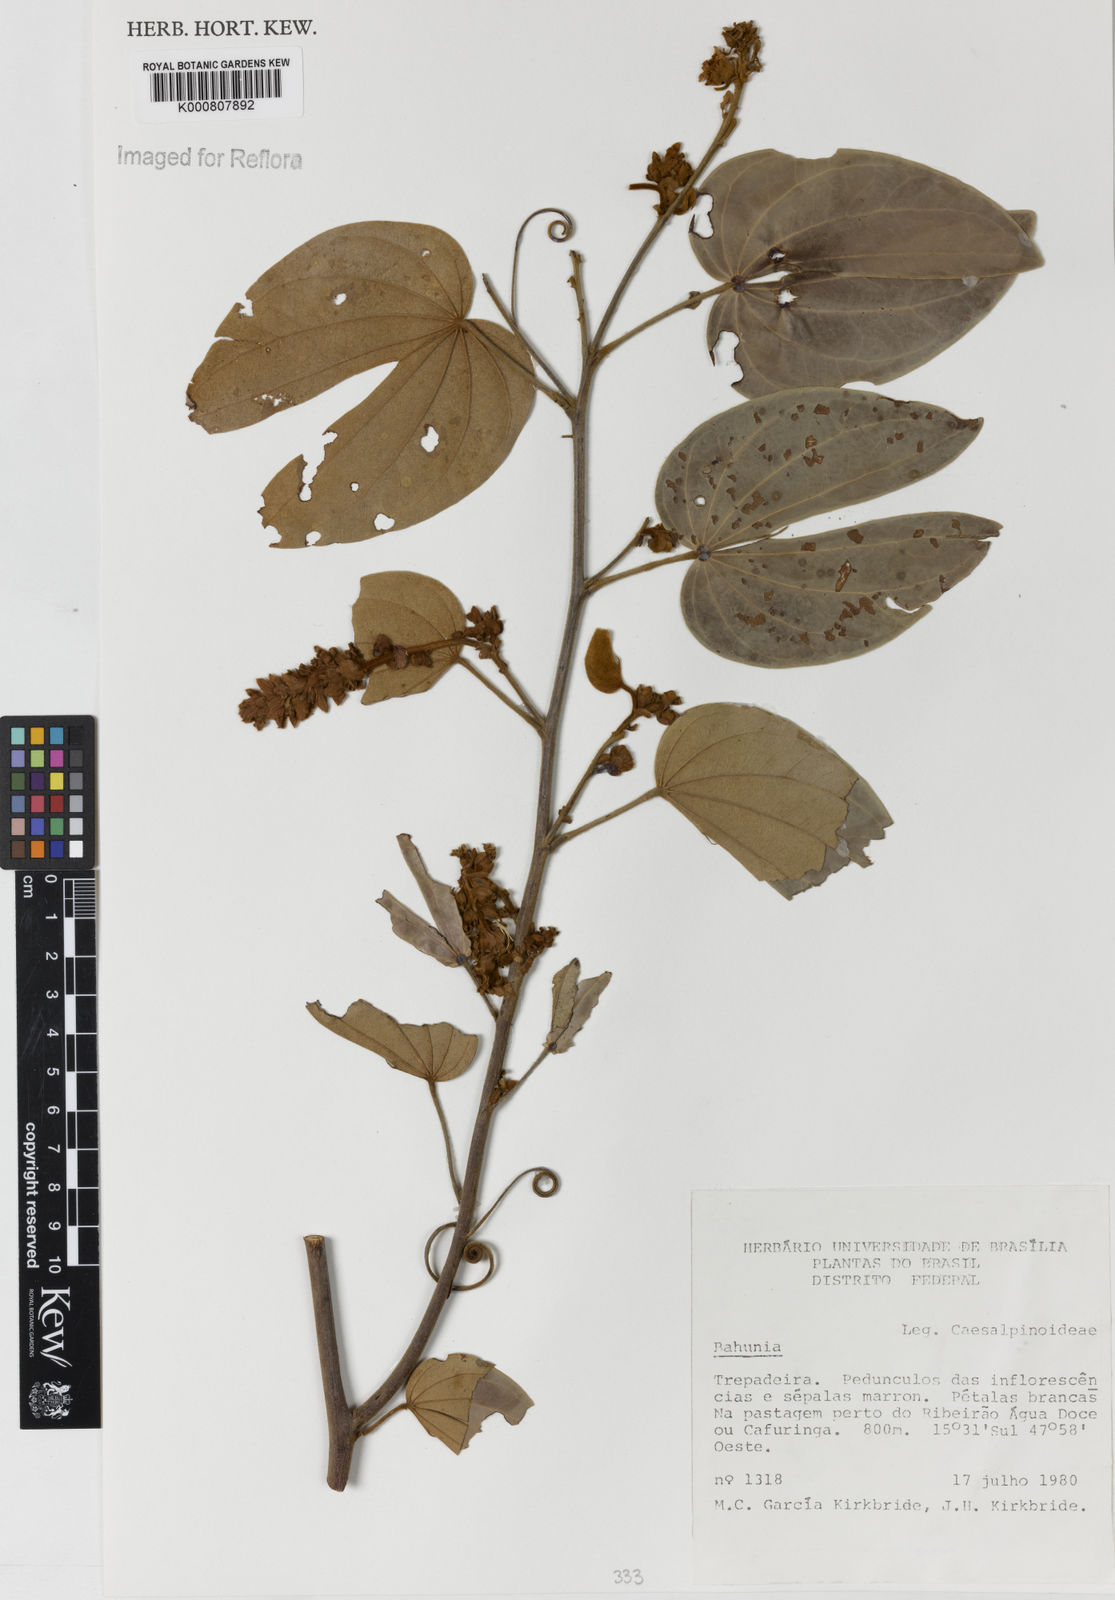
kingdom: Plantae
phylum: Tracheophyta
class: Magnoliopsida
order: Fabales
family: Fabaceae
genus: Schnella
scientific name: Schnella outimouta
